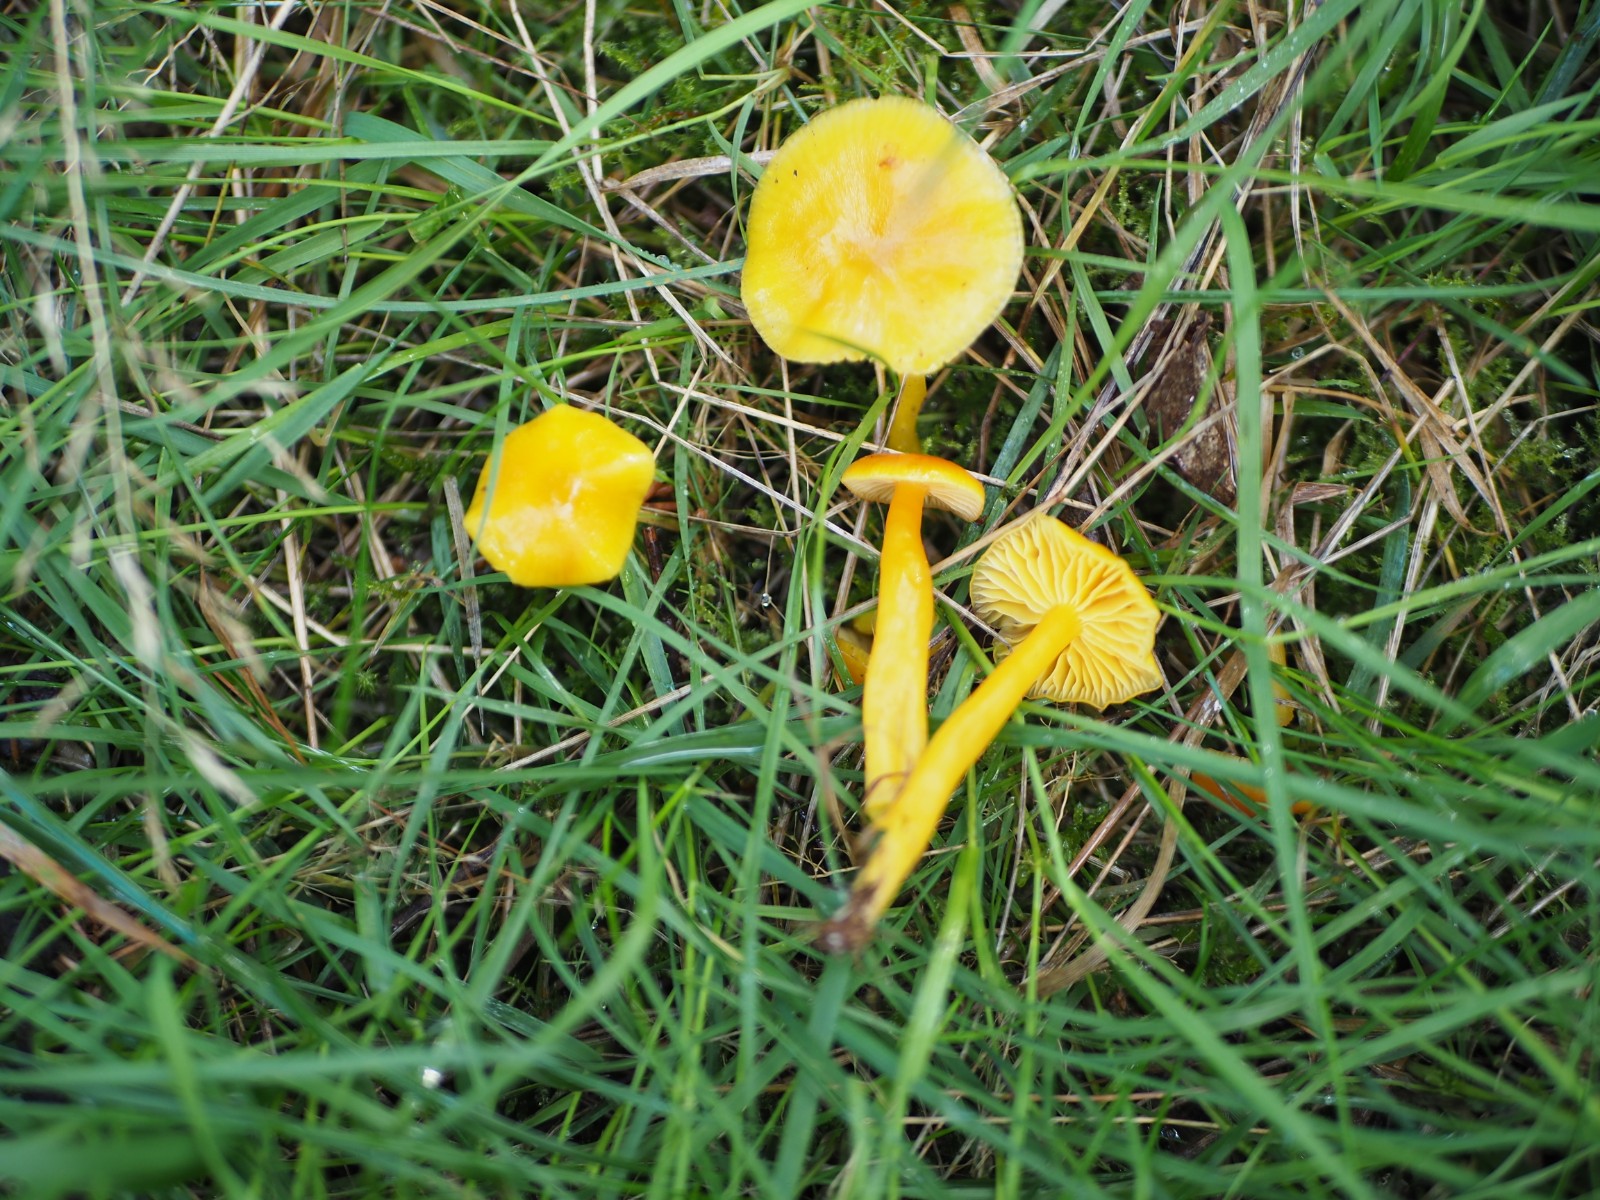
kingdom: Fungi
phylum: Basidiomycota
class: Agaricomycetes
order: Agaricales
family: Hygrophoraceae
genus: Hygrocybe
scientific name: Hygrocybe ceracea
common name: voksgul vokshat
